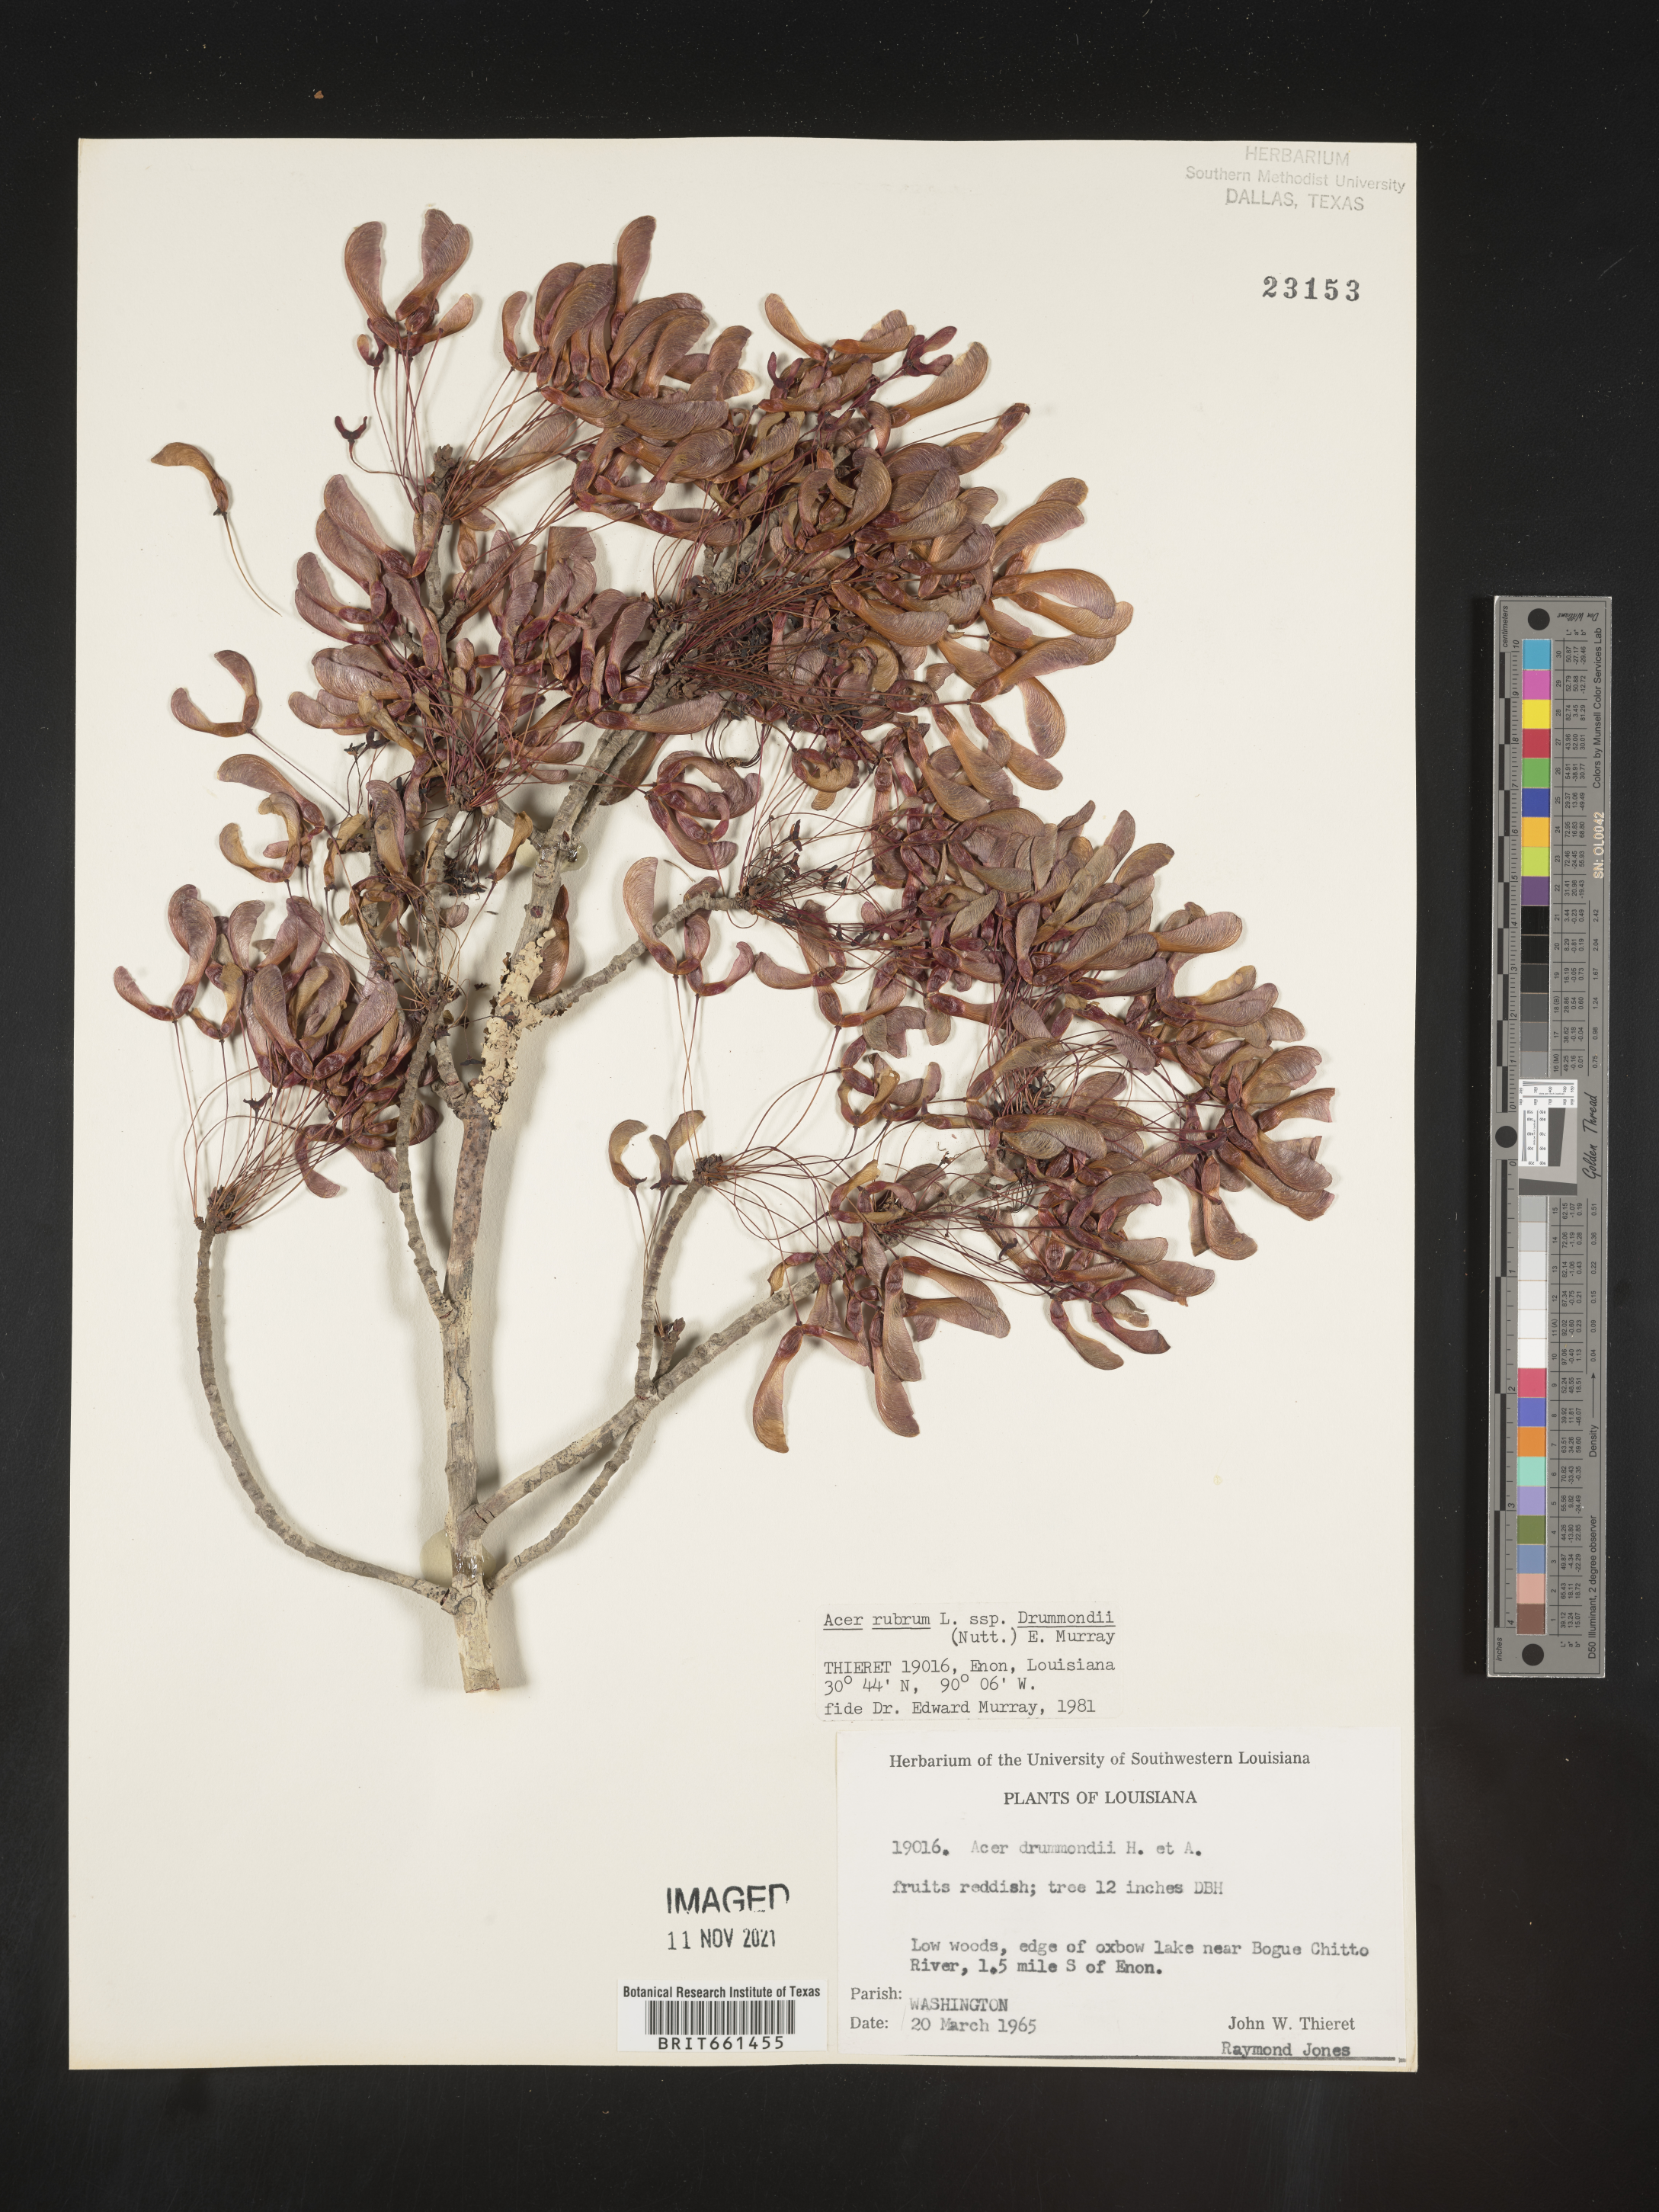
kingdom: Plantae
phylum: Tracheophyta
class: Magnoliopsida
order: Sapindales
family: Sapindaceae
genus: Acer
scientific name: Acer rubrum
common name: Red maple
